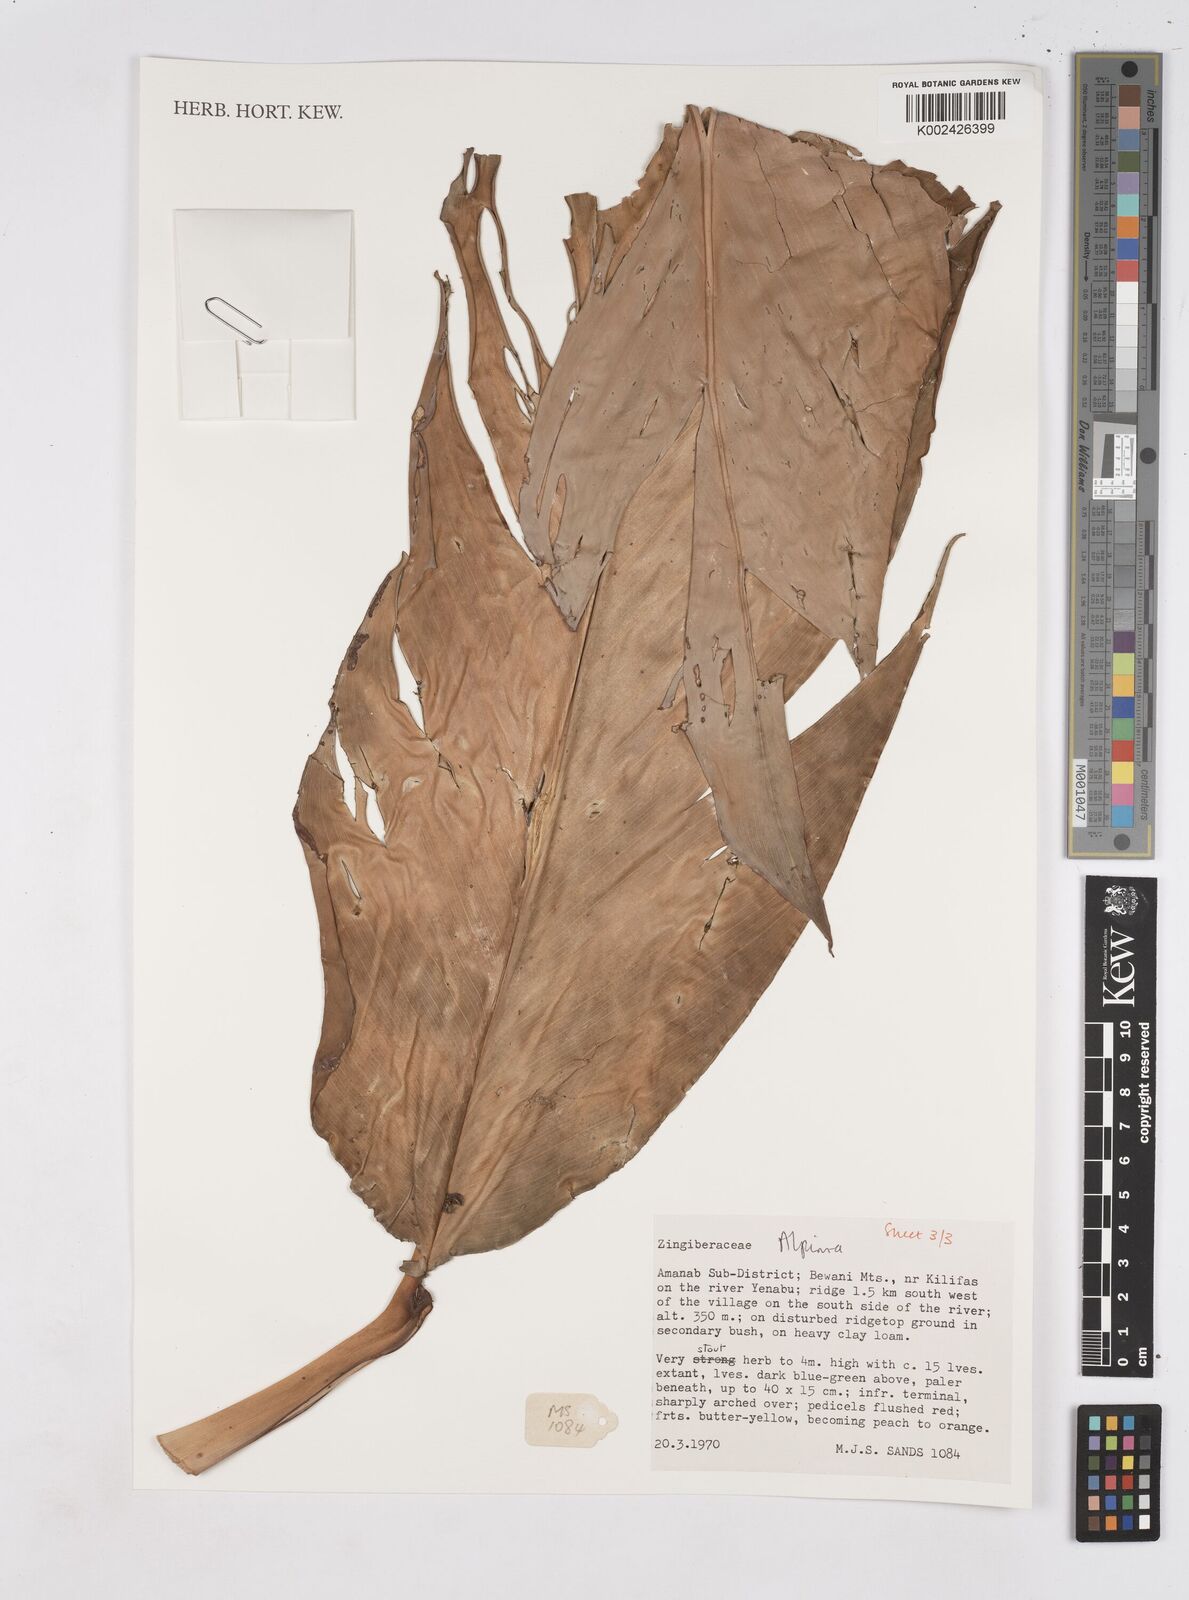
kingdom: Plantae
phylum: Tracheophyta
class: Liliopsida
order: Zingiberales
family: Zingiberaceae
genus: Pleuranthodium
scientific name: Pleuranthodium
